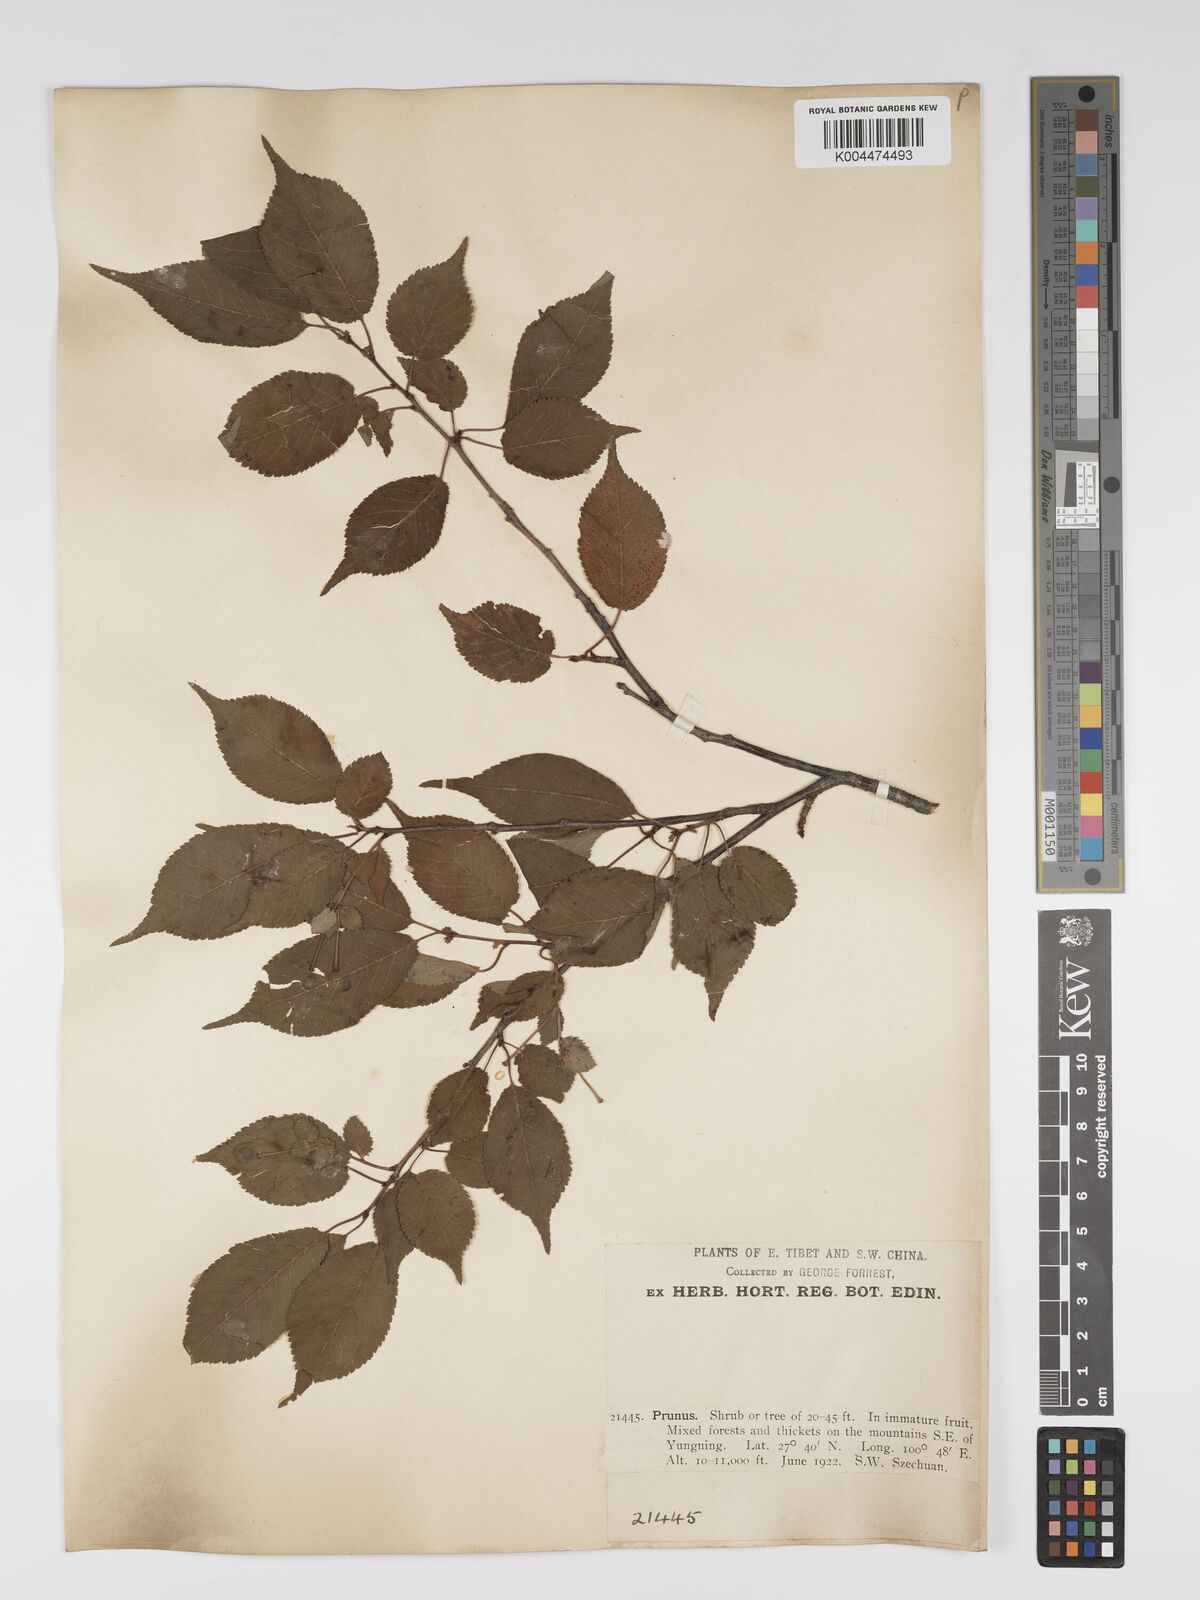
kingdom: Plantae
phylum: Tracheophyta
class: Magnoliopsida
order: Rosales
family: Rosaceae
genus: Prunus
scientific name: Prunus
